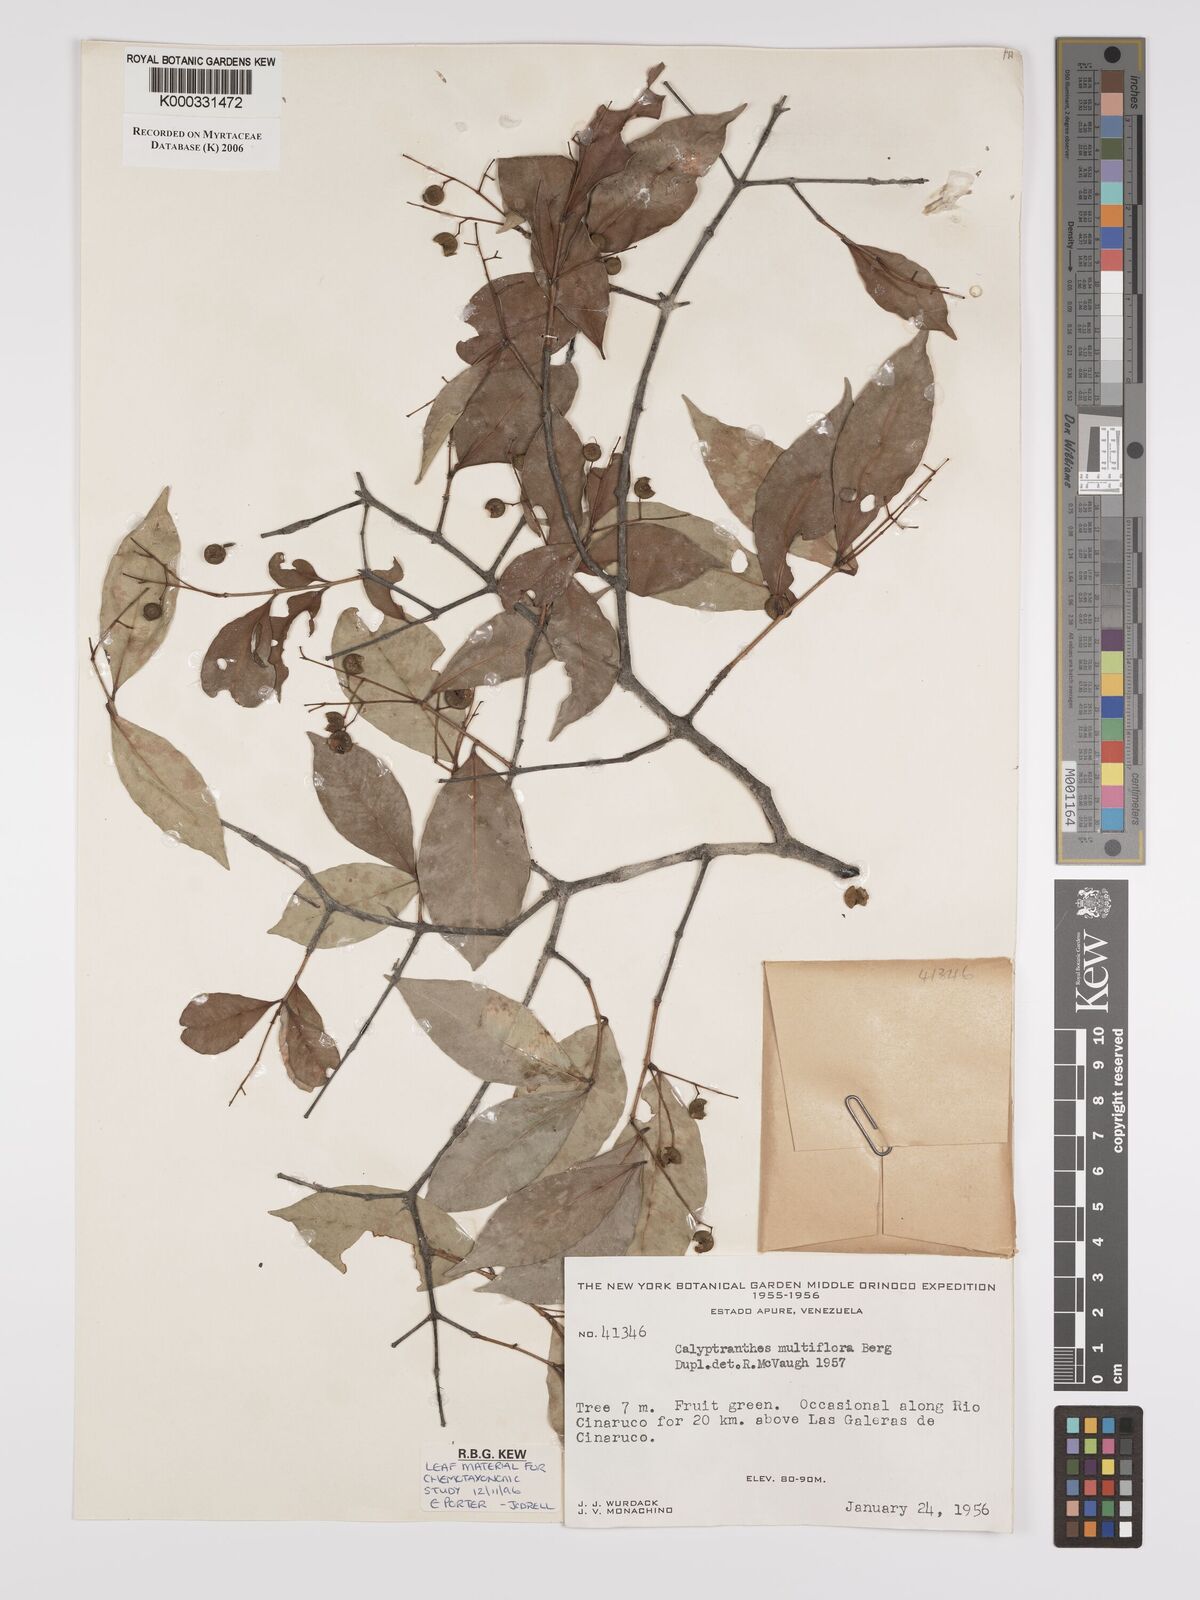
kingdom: Plantae
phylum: Tracheophyta
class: Magnoliopsida
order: Myrtales
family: Myrtaceae
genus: Myrcia
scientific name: Myrcia aulomyrcioides
